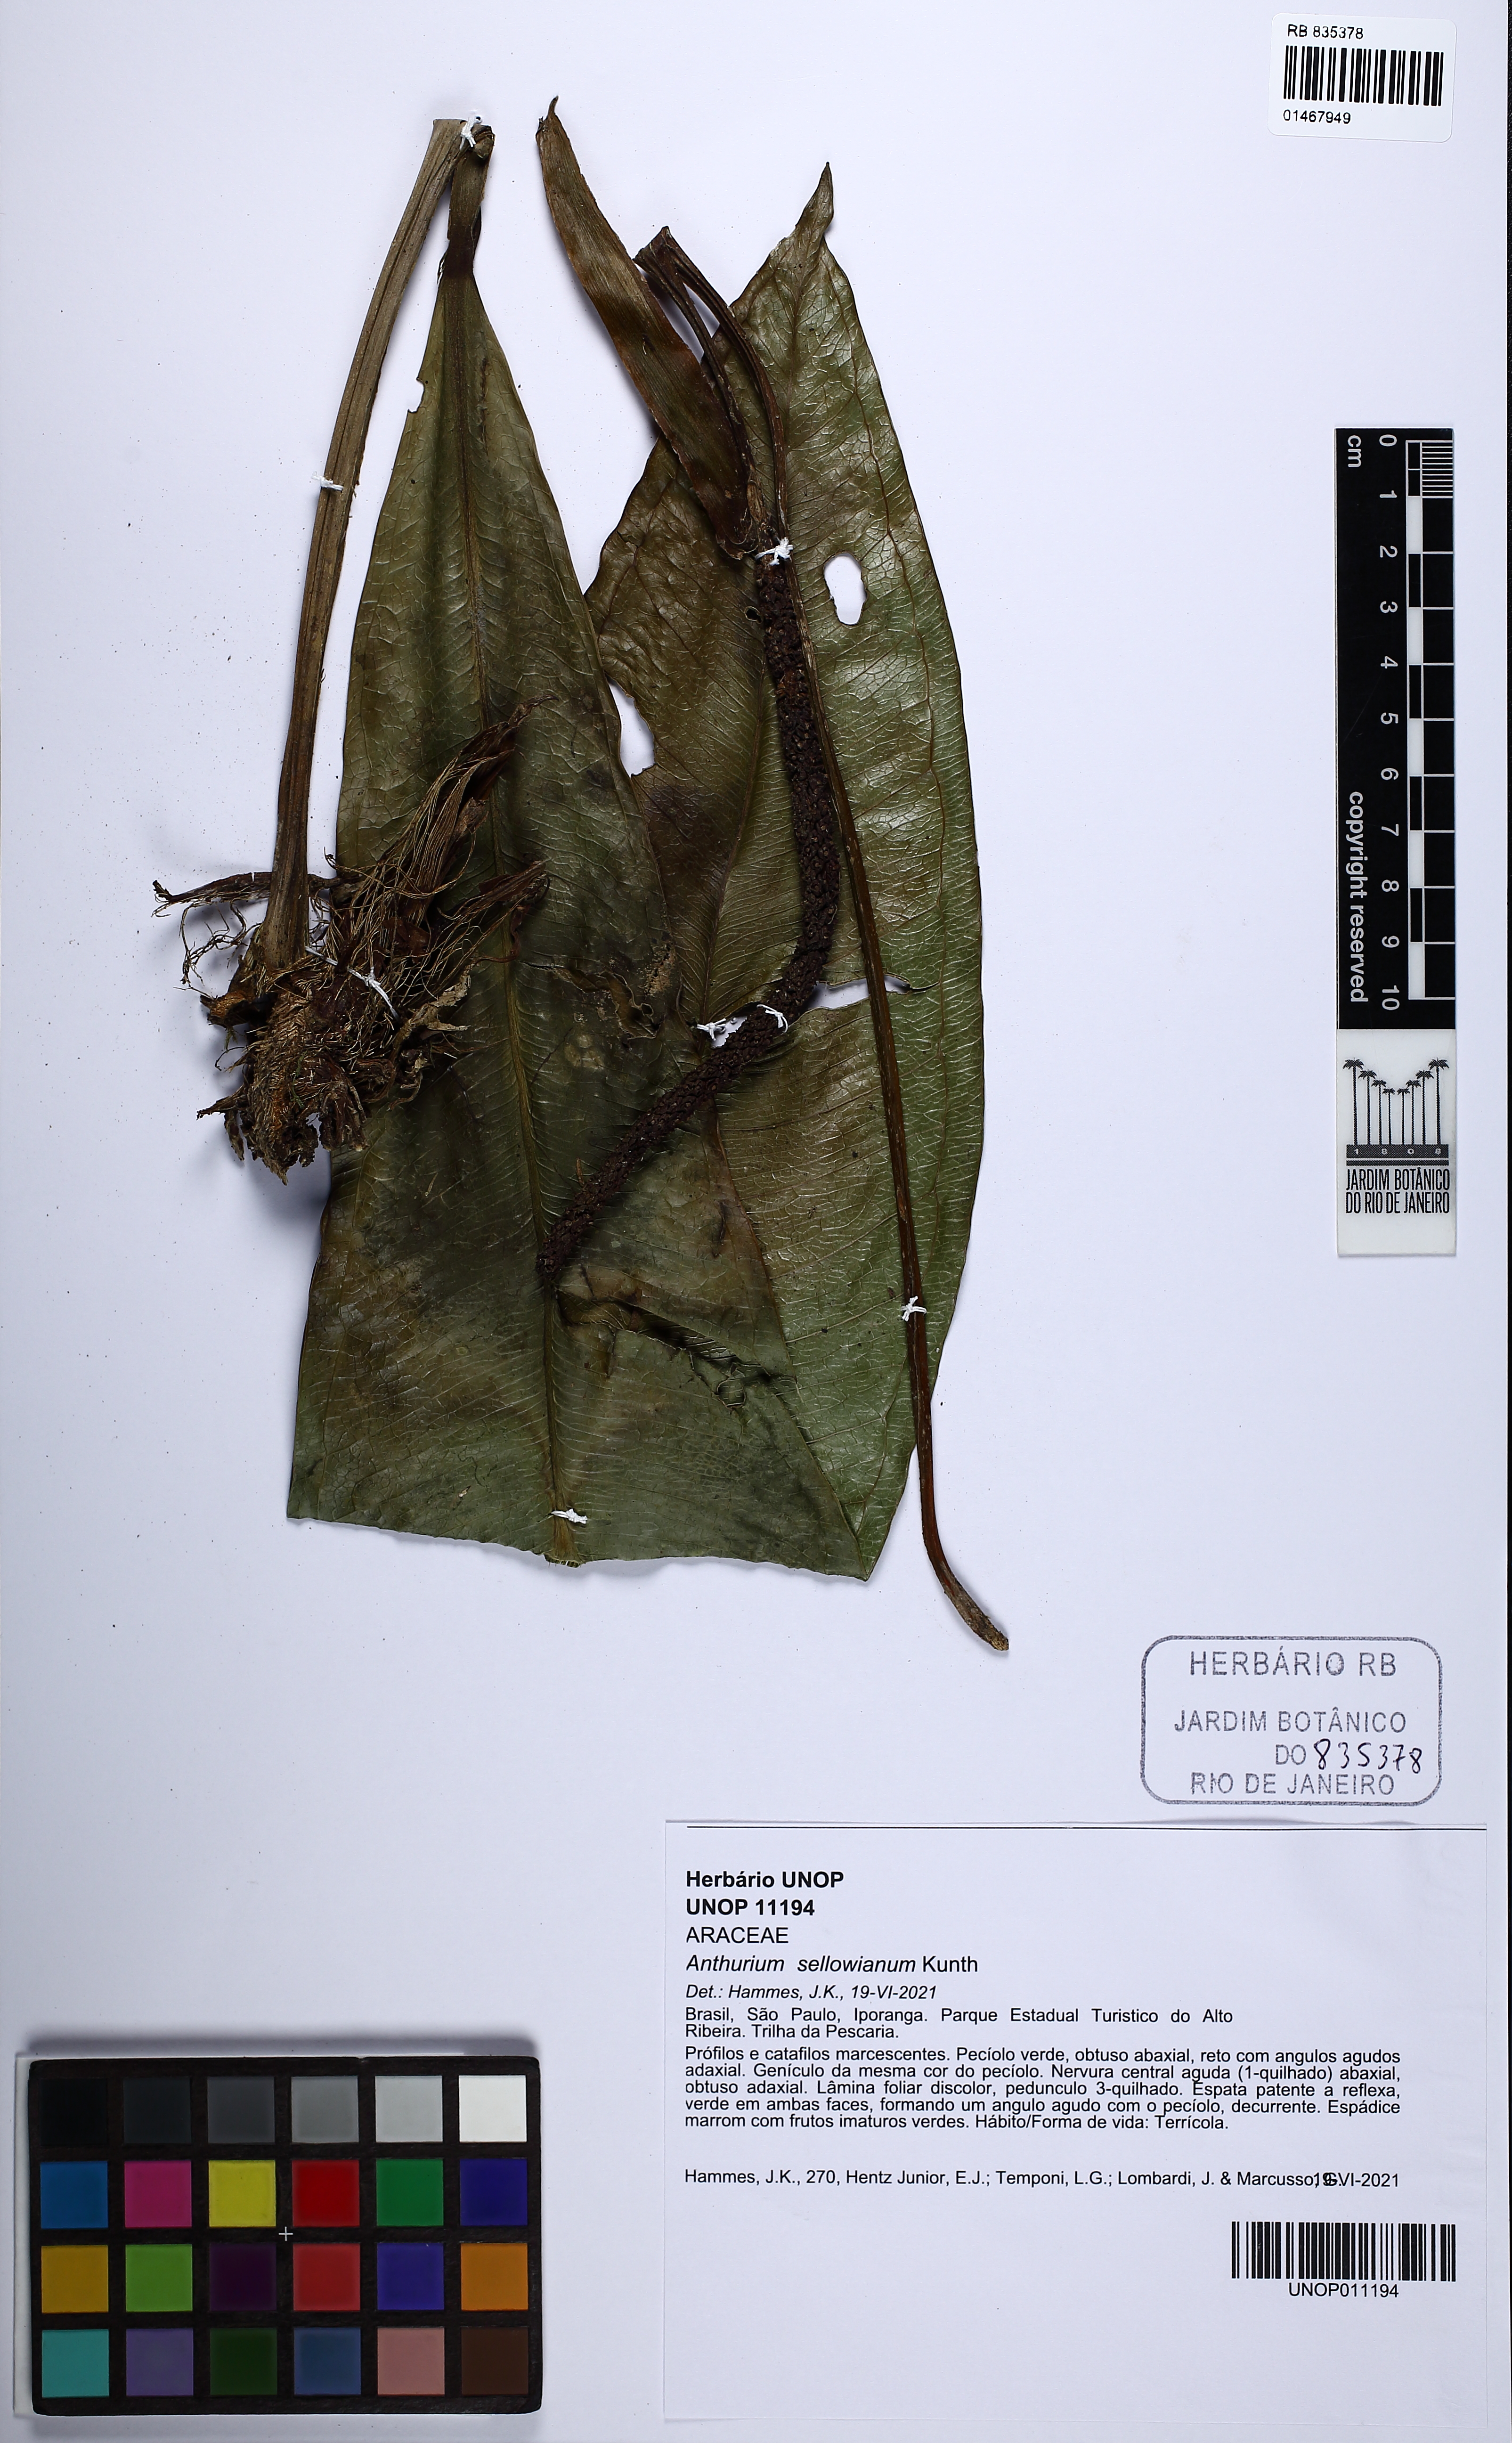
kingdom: Plantae
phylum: Tracheophyta
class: Liliopsida
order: Alismatales
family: Araceae
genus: Anthurium
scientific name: Anthurium sellowianum
